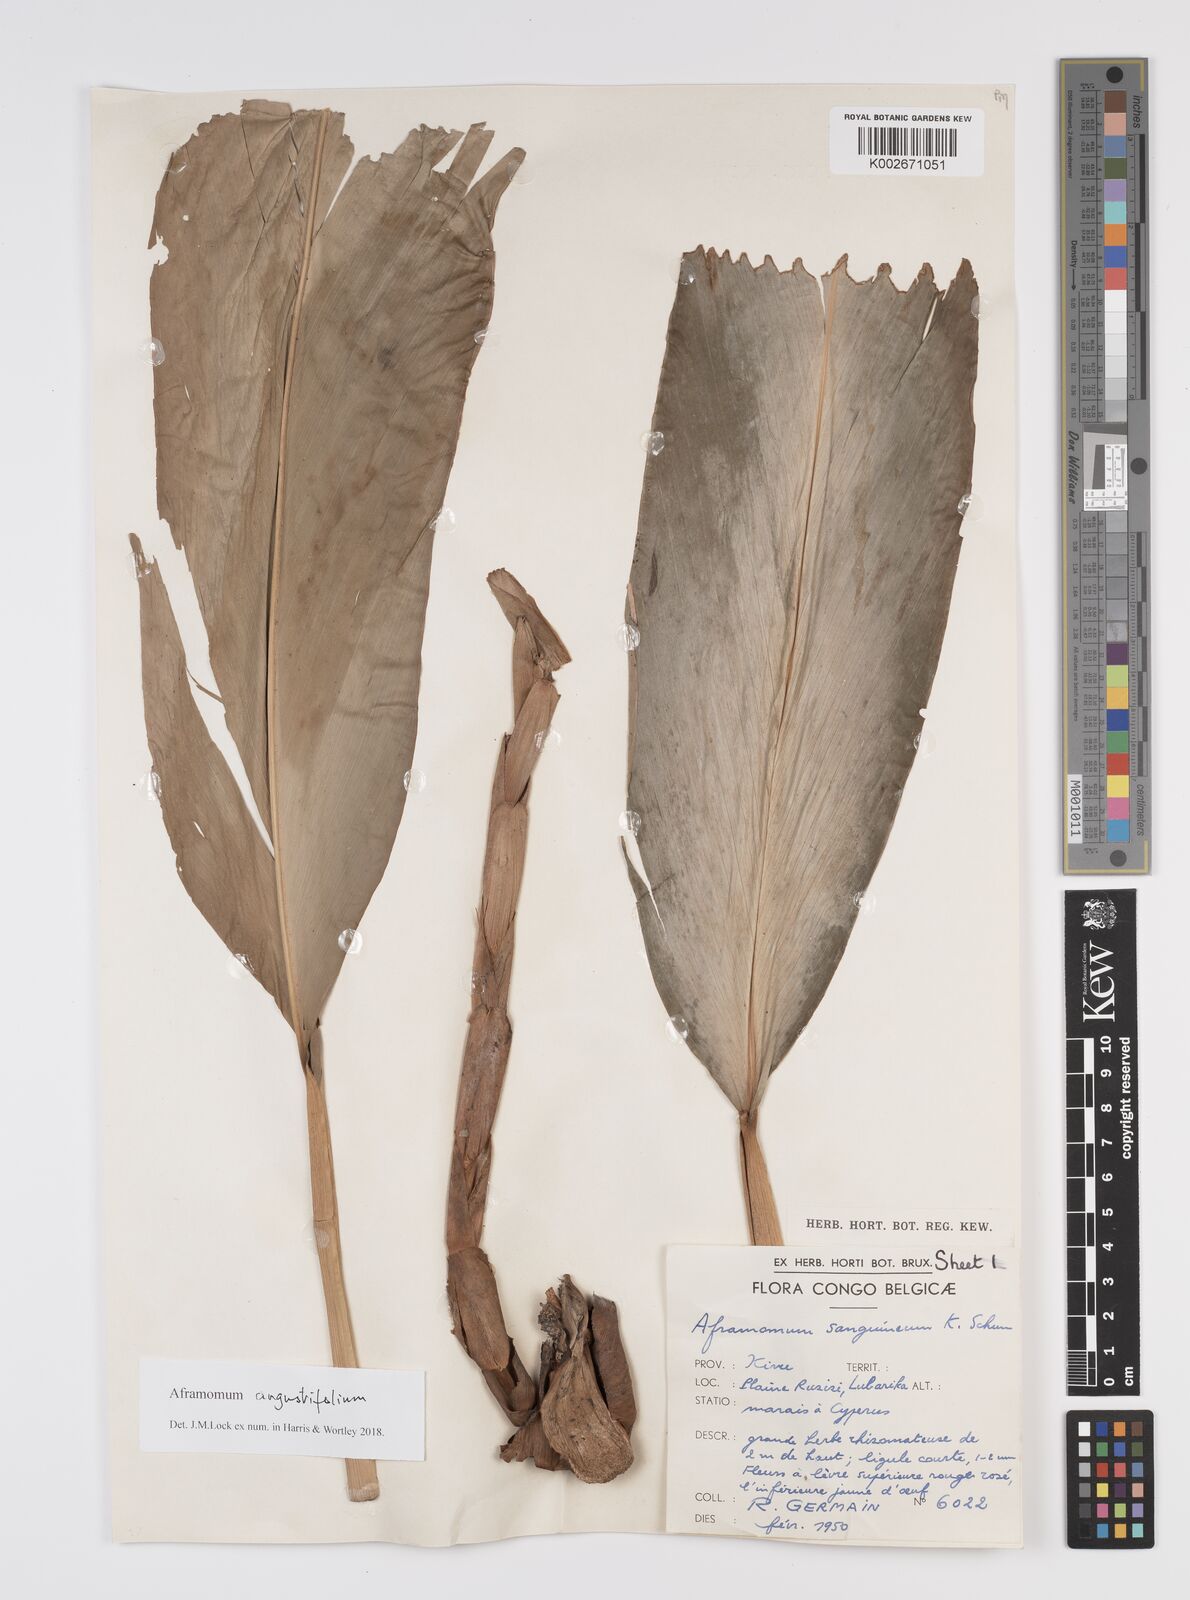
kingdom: Plantae
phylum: Tracheophyta
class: Liliopsida
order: Zingiberales
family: Zingiberaceae
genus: Aframomum
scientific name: Aframomum angustifolium
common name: Guinea grains
